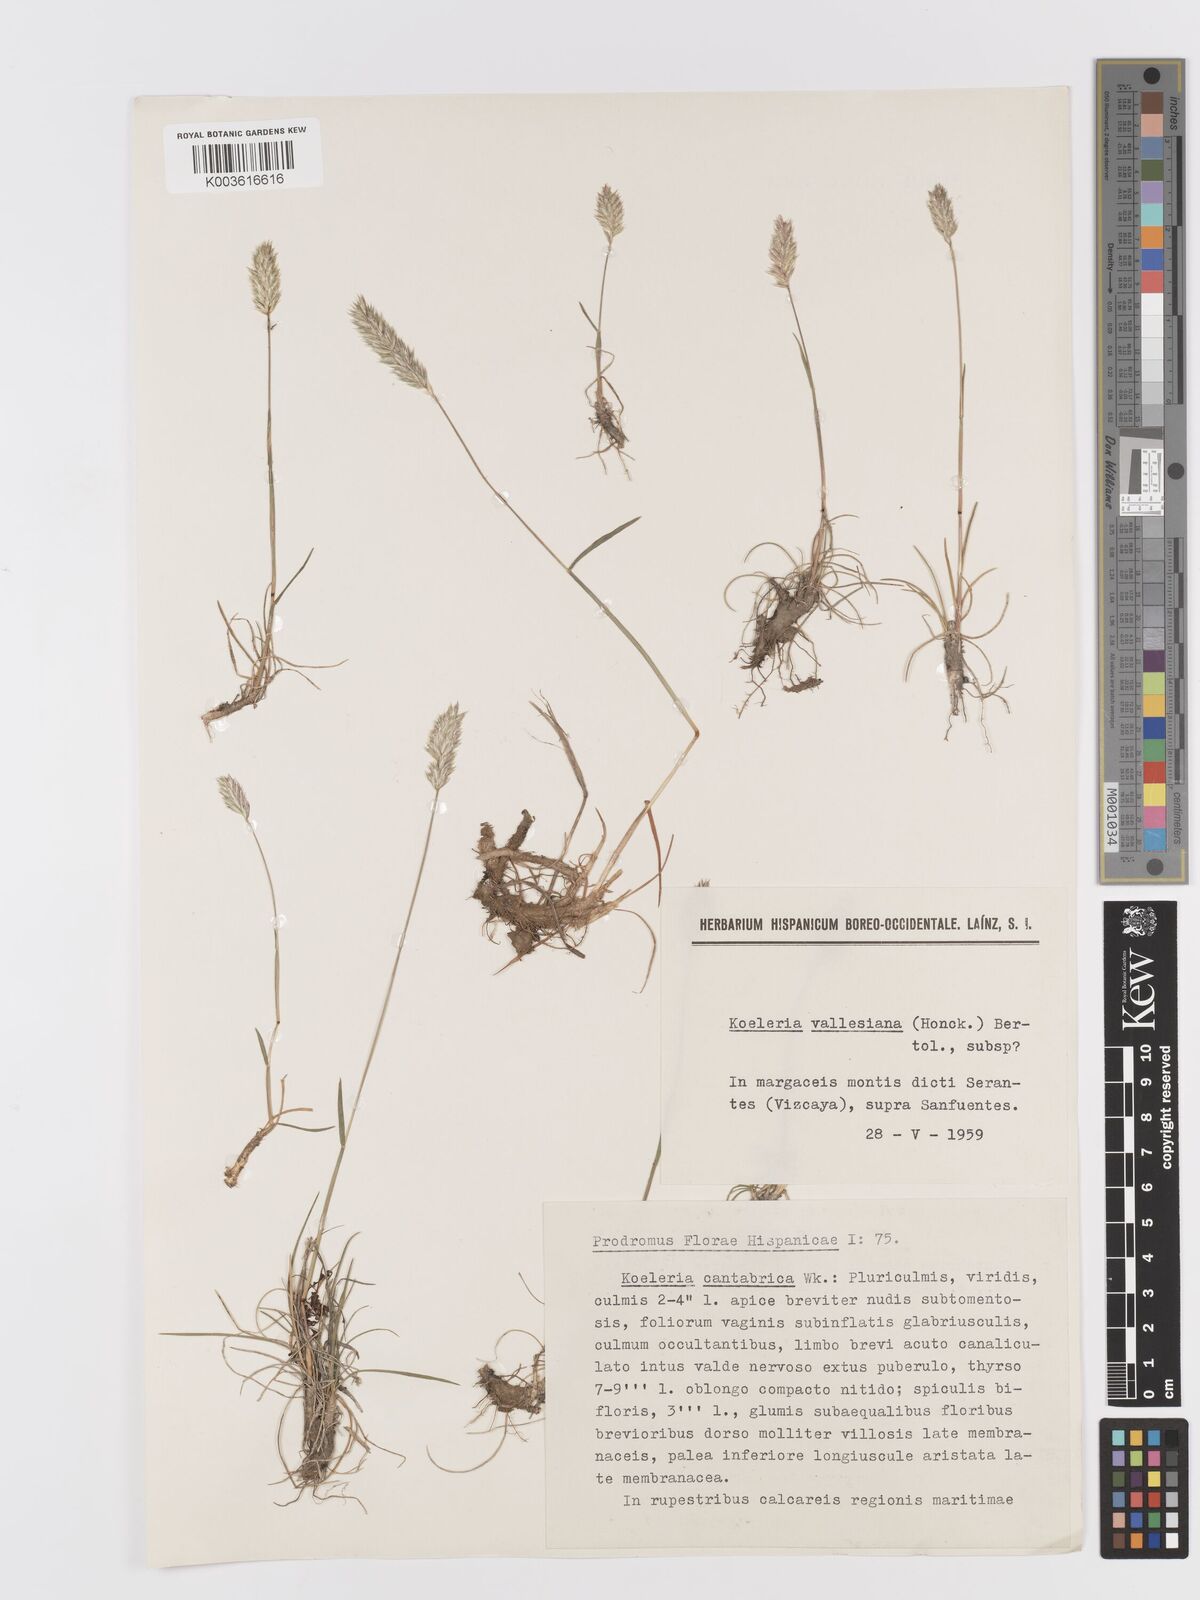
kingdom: Plantae
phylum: Tracheophyta
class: Liliopsida
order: Poales
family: Poaceae
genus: Koeleria
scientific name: Koeleria vallesiana
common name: Somerset hair-grass
